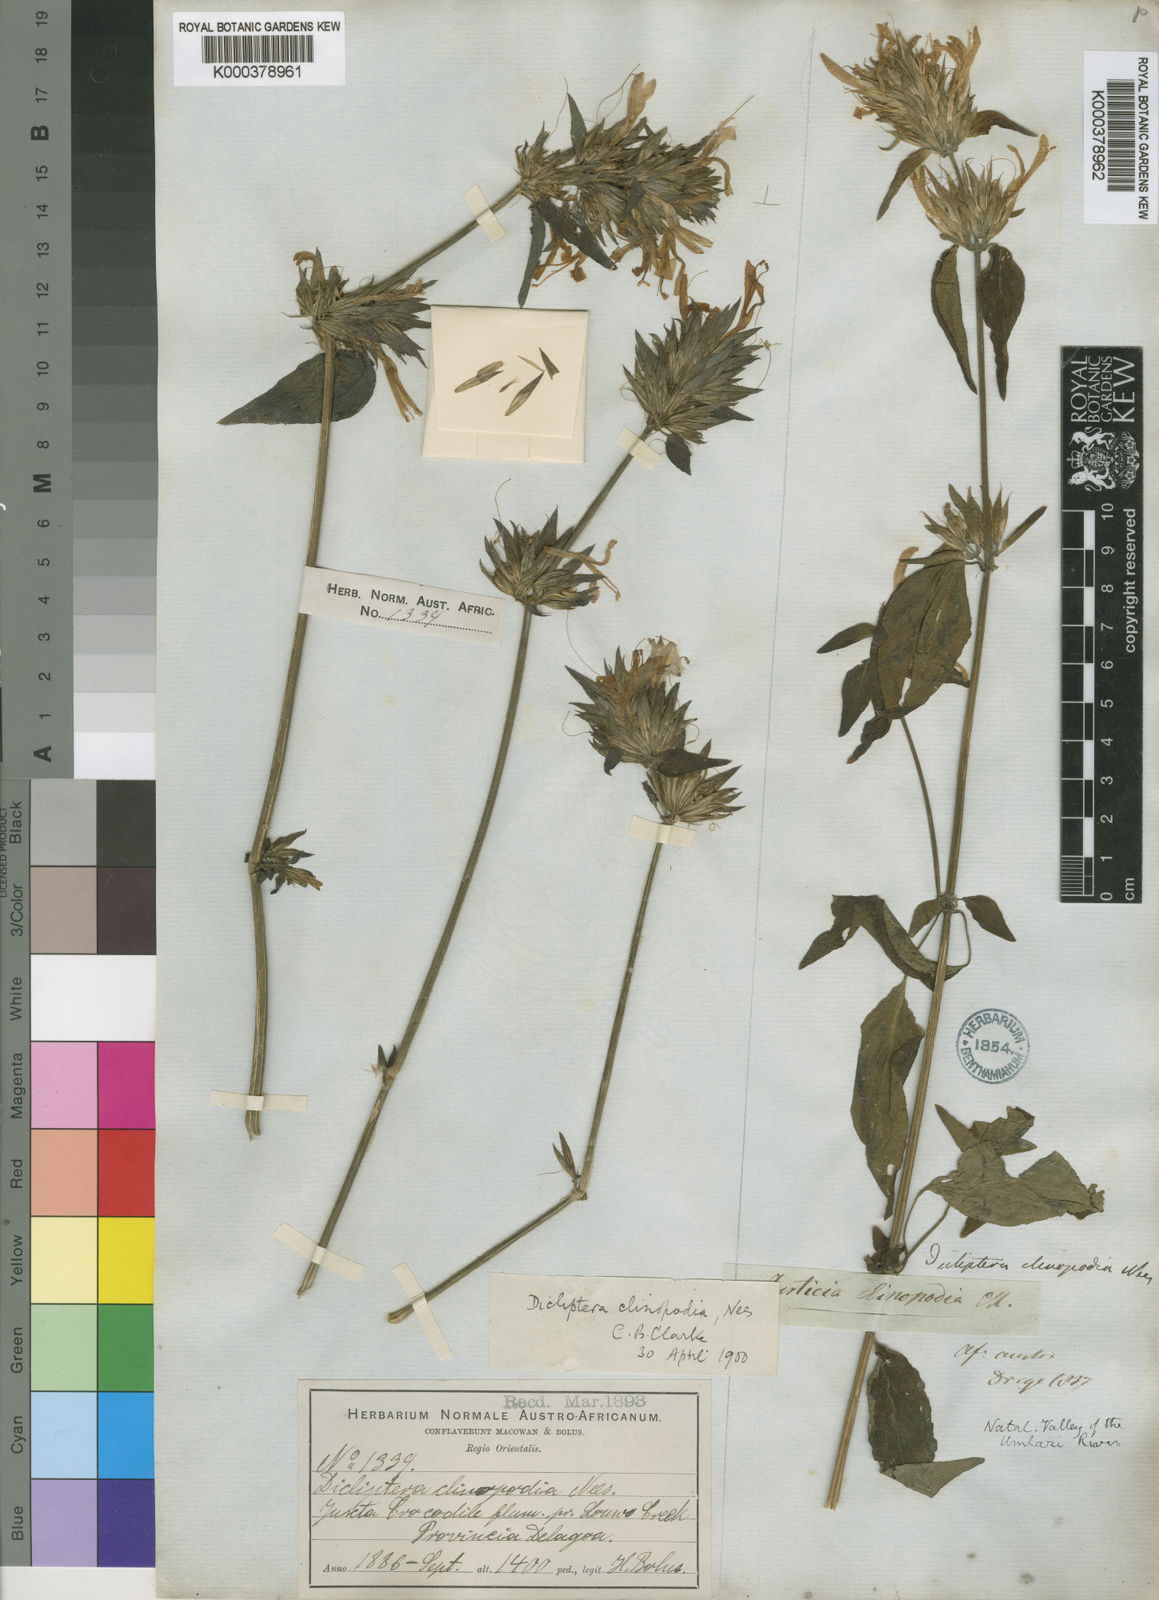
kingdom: Plantae
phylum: Tracheophyta
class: Magnoliopsida
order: Lamiales
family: Acanthaceae
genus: Dicliptera
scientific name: Dicliptera clinopodia
